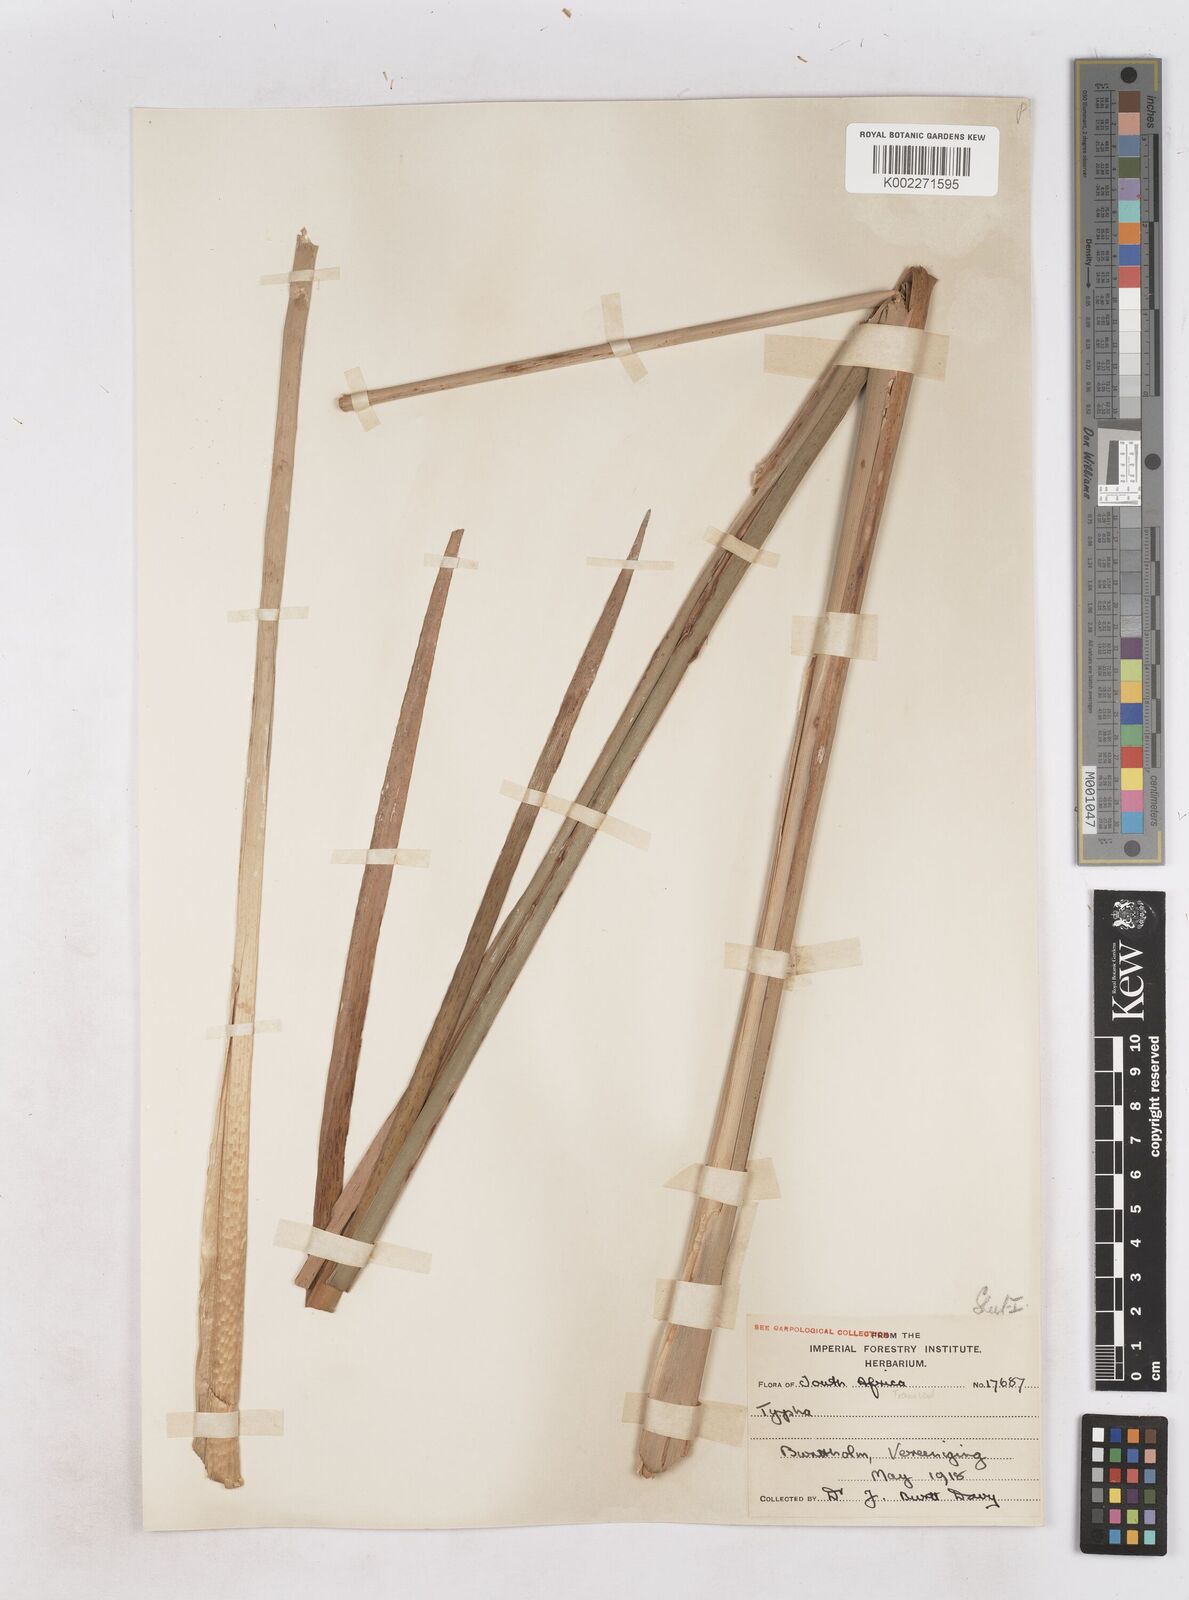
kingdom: Plantae
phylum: Tracheophyta
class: Liliopsida
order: Poales
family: Typhaceae
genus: Typha
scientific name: Typha capensis
